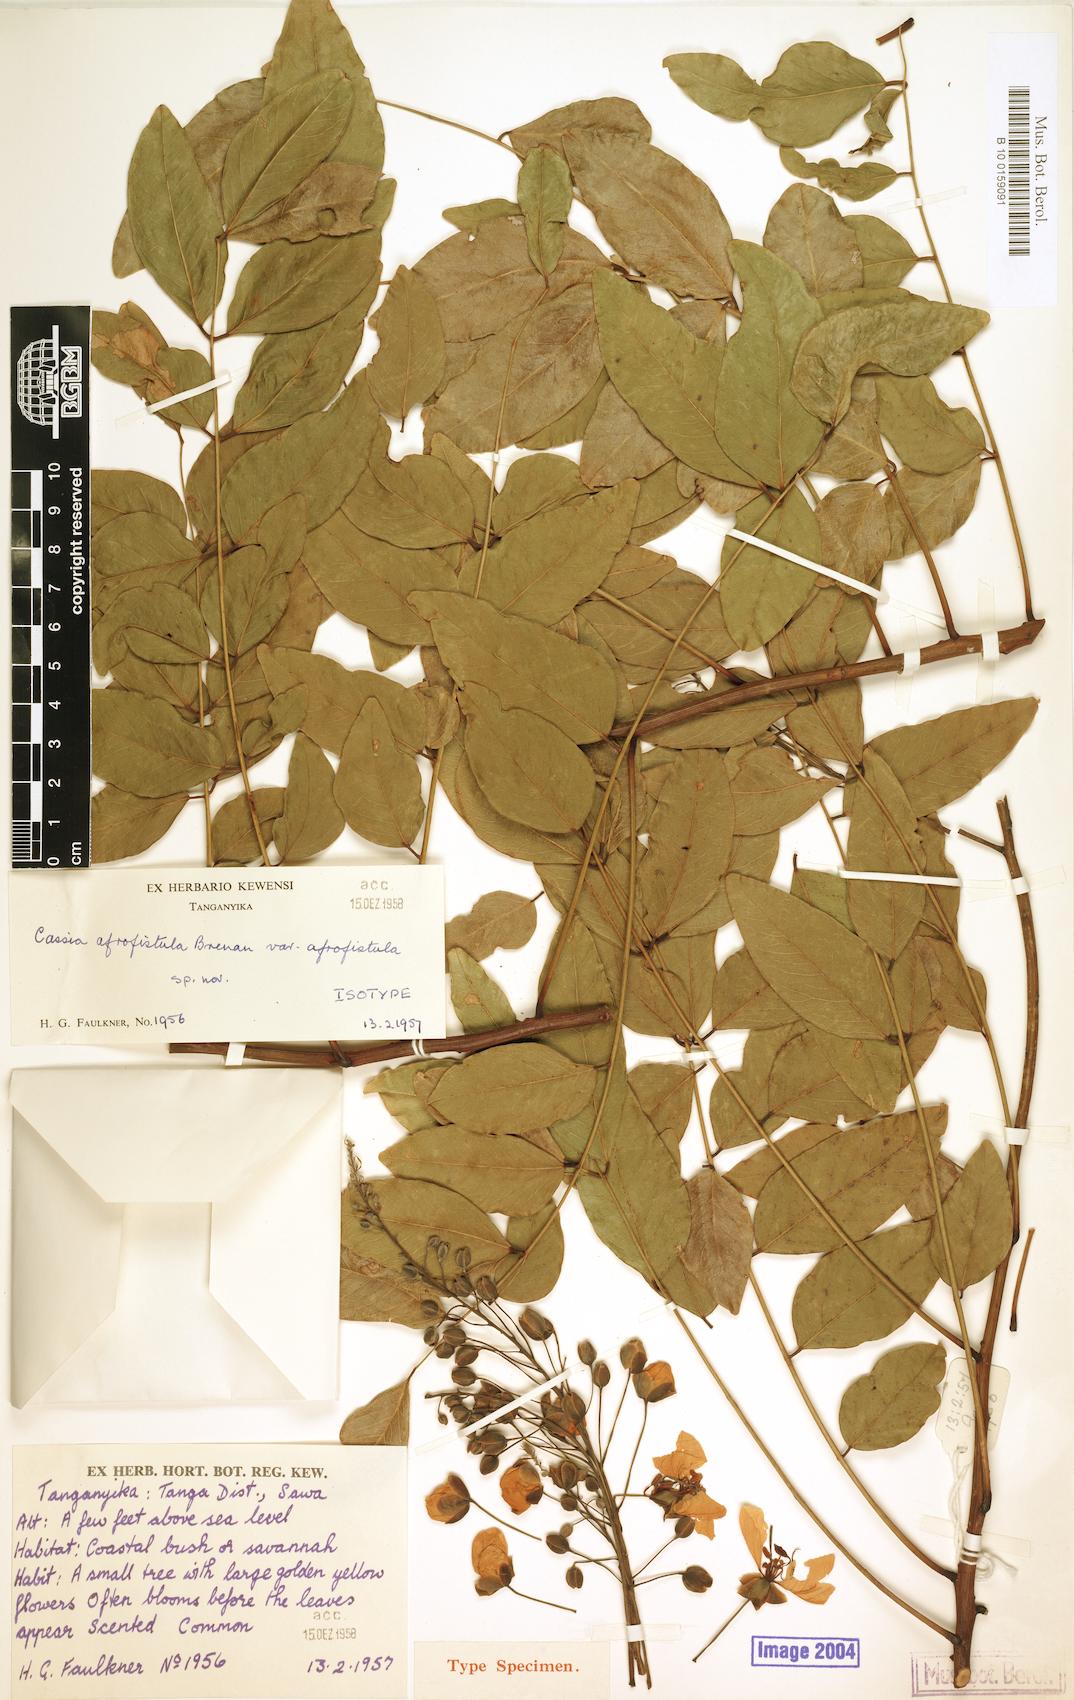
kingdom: Plantae
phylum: Tracheophyta
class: Magnoliopsida
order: Fabales
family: Fabaceae
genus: Cassia
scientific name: Cassia afrofistula
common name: Kenyan shower
